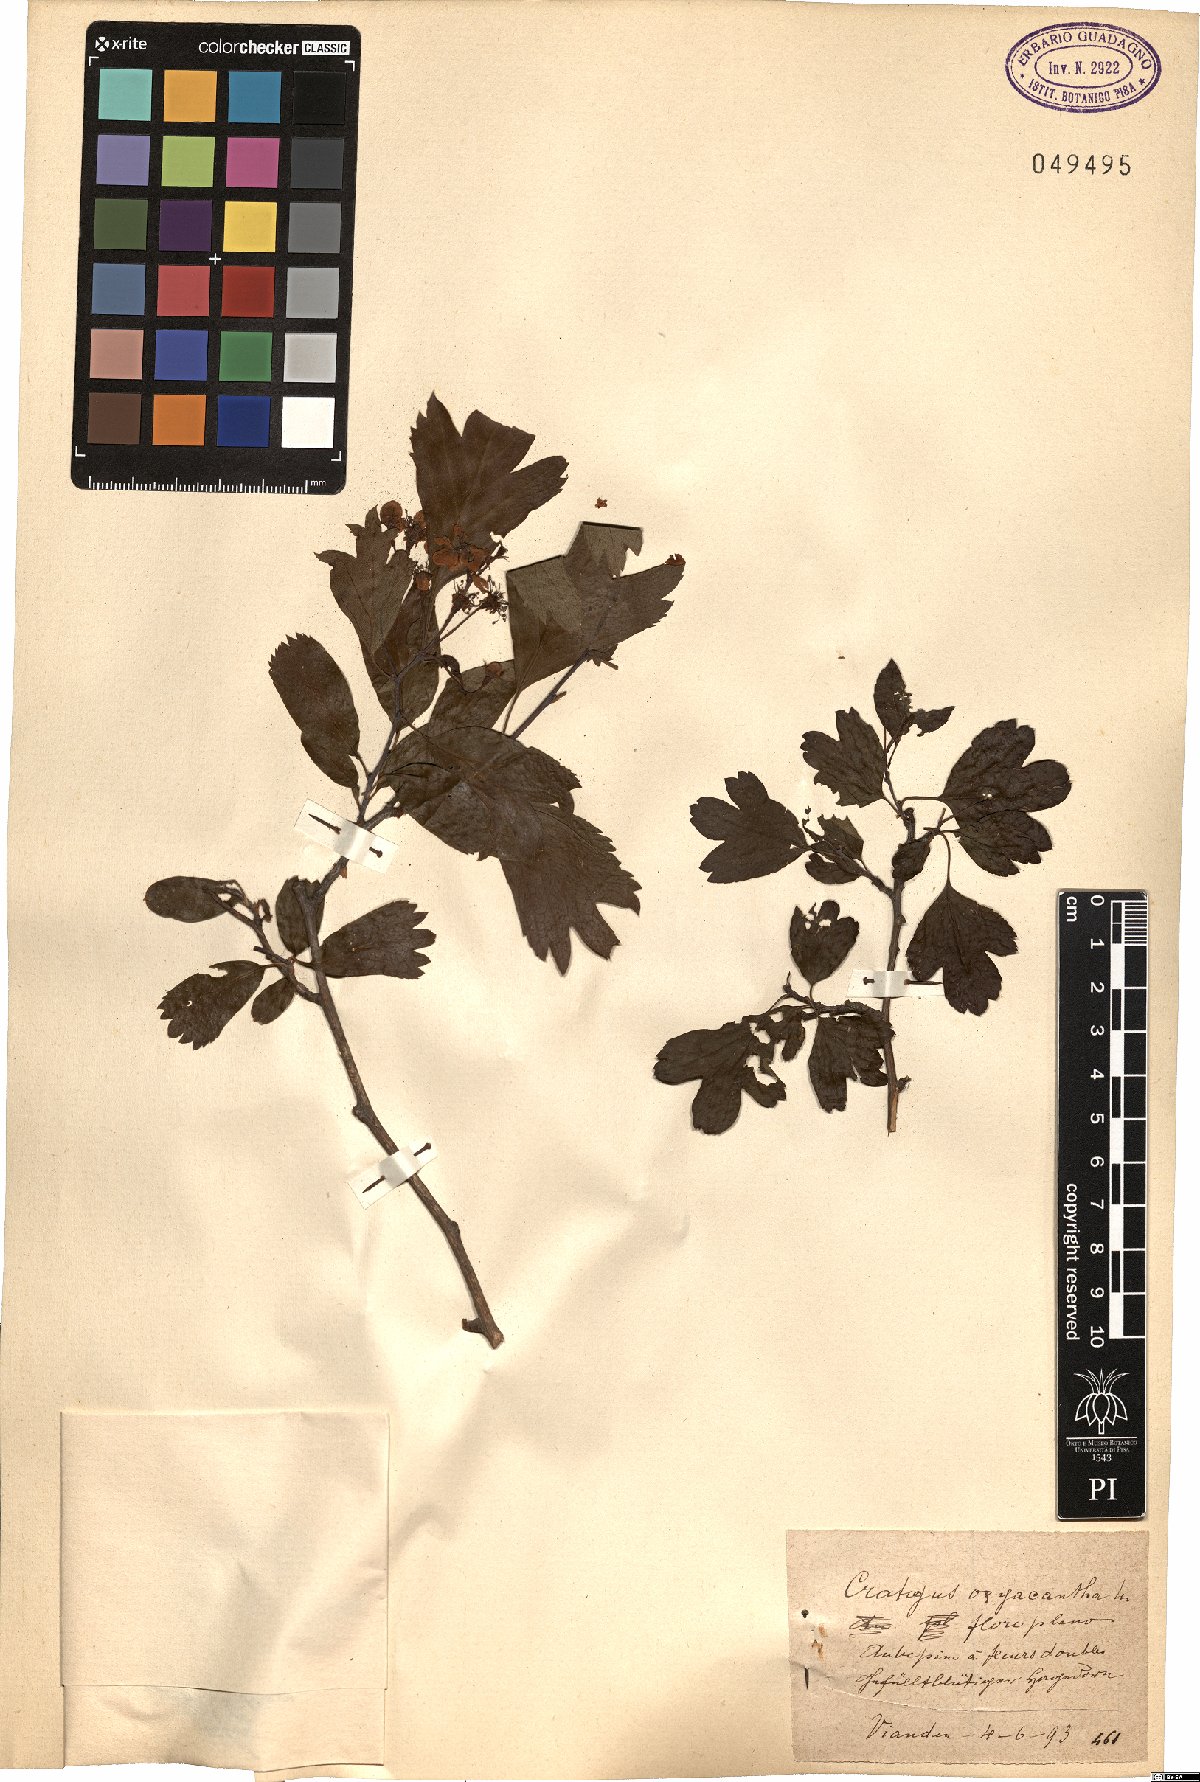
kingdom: Plantae
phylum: Tracheophyta
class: Magnoliopsida
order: Rosales
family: Rosaceae
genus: Crataegus
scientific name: Crataegus monogyna
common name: Hawthorn
